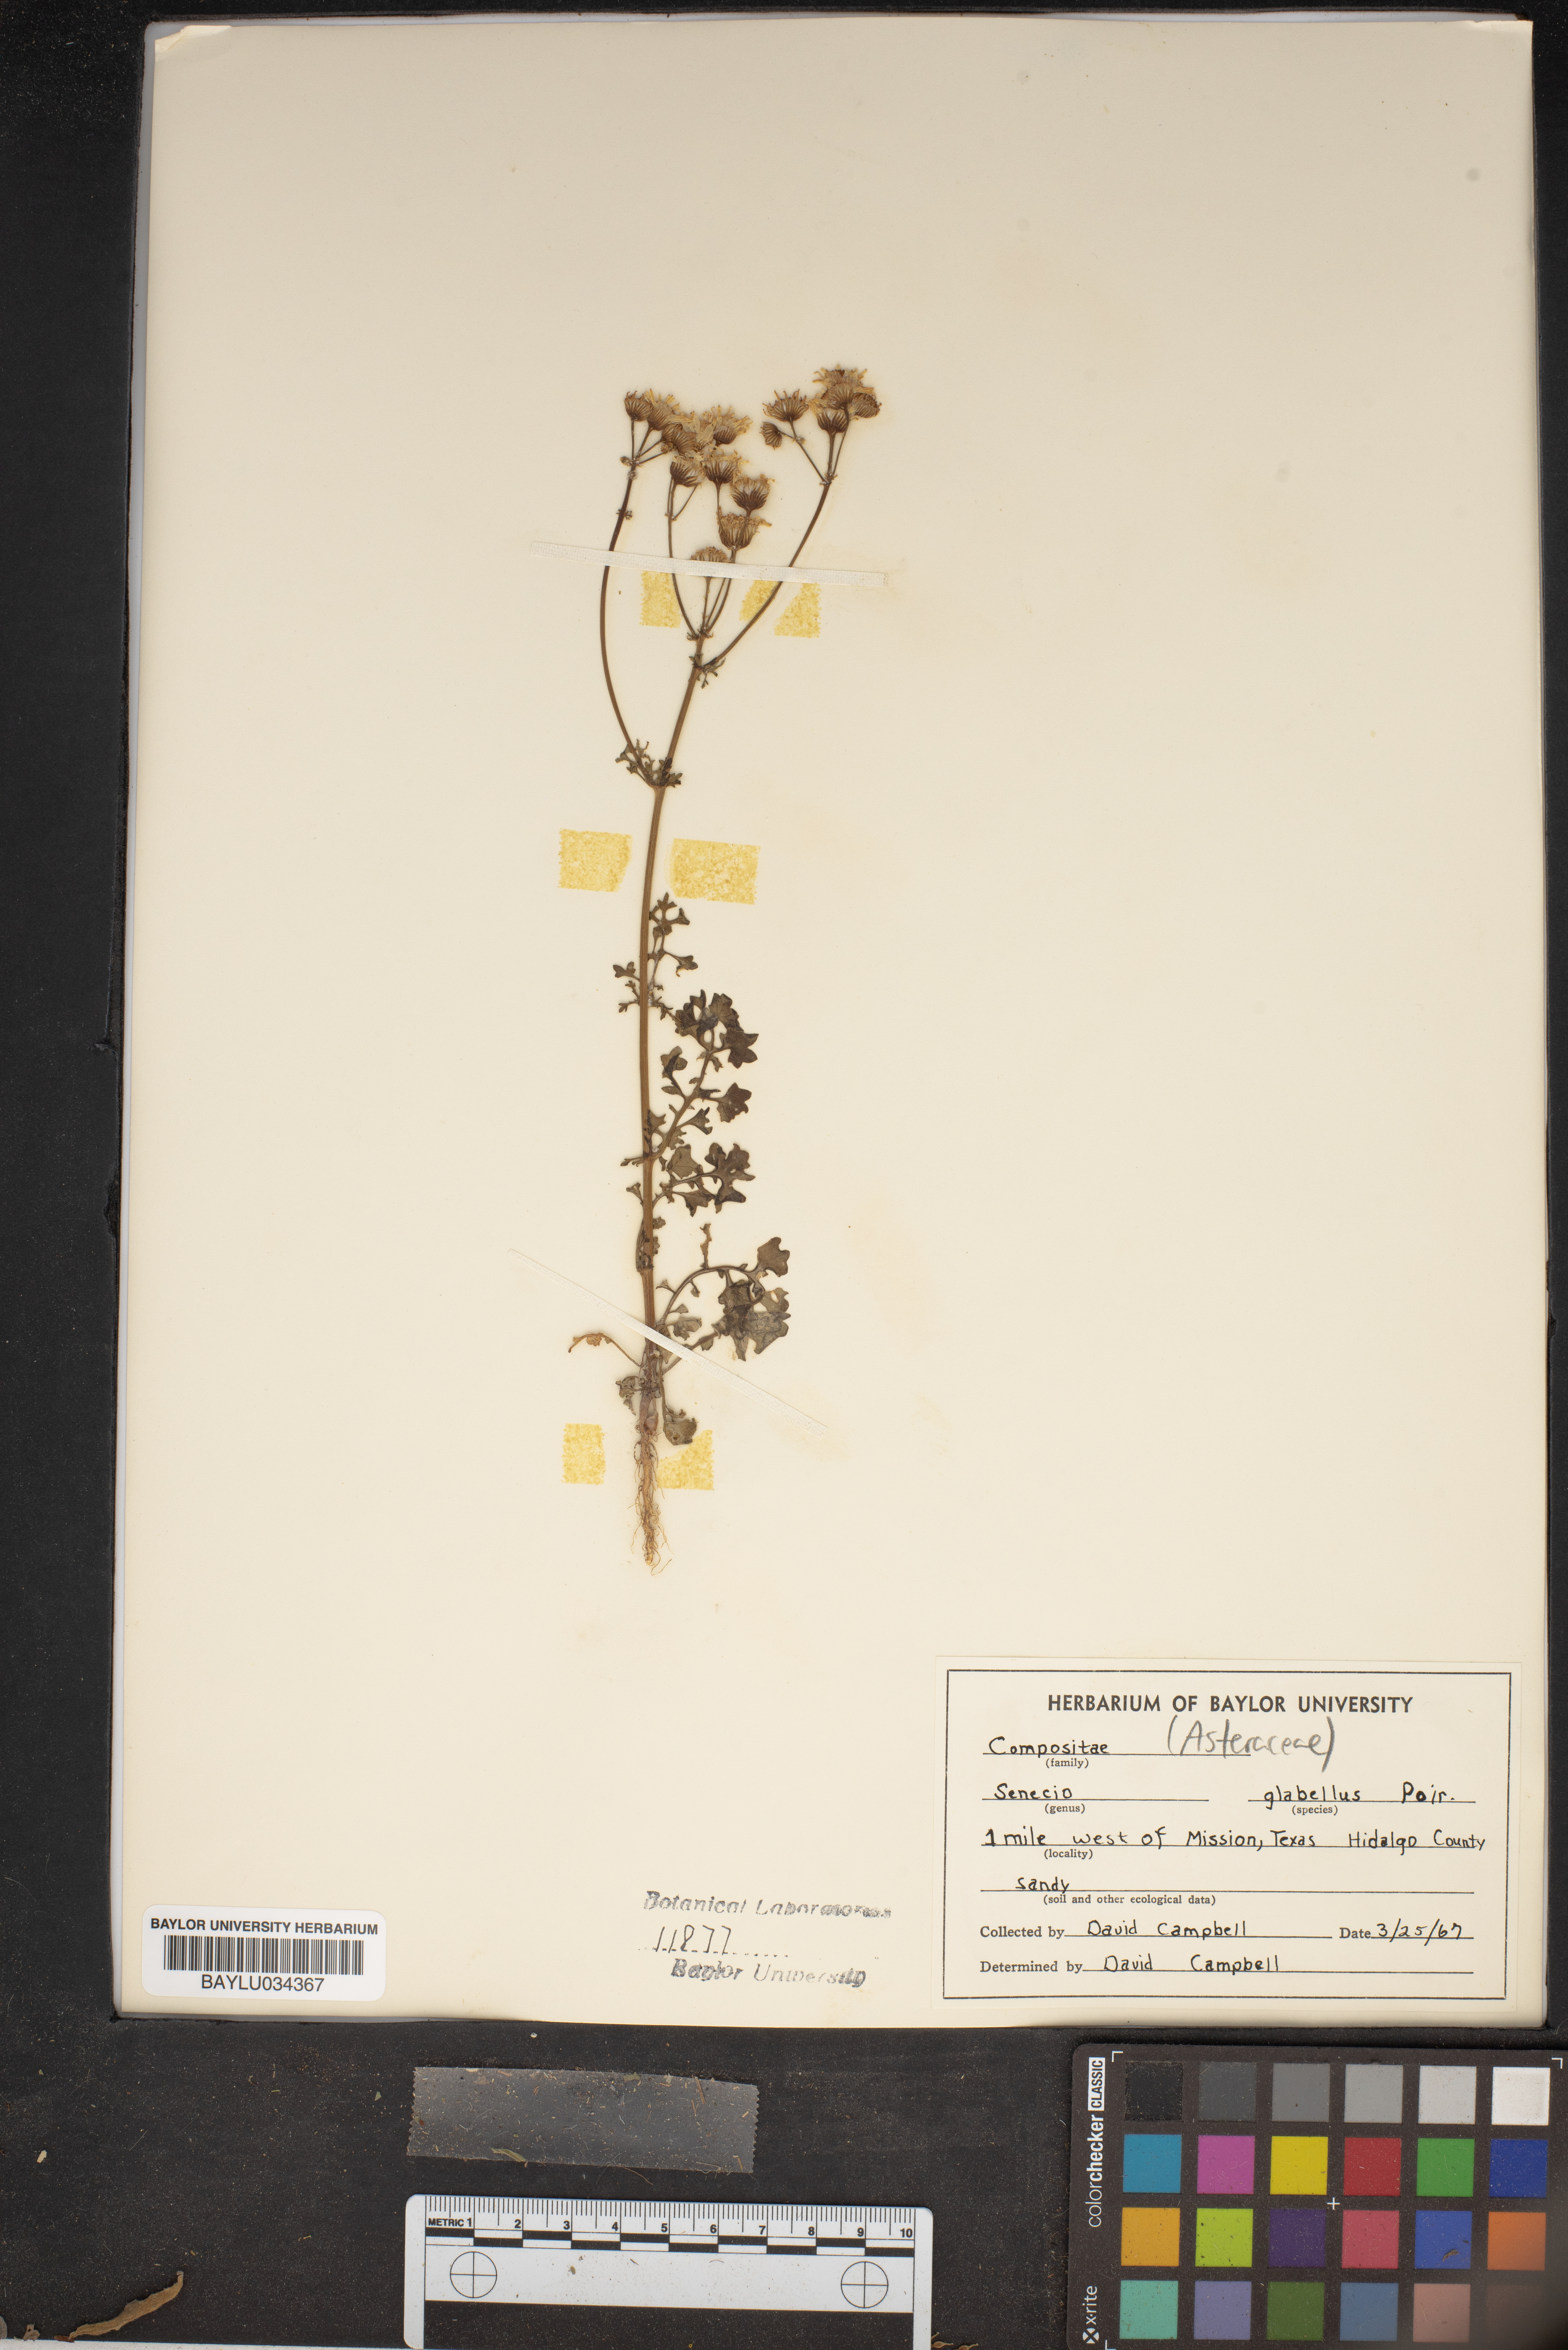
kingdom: Plantae
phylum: Tracheophyta
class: Magnoliopsida
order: Asterales
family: Asteraceae
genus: Tephroseris
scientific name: Tephroseris praticola
